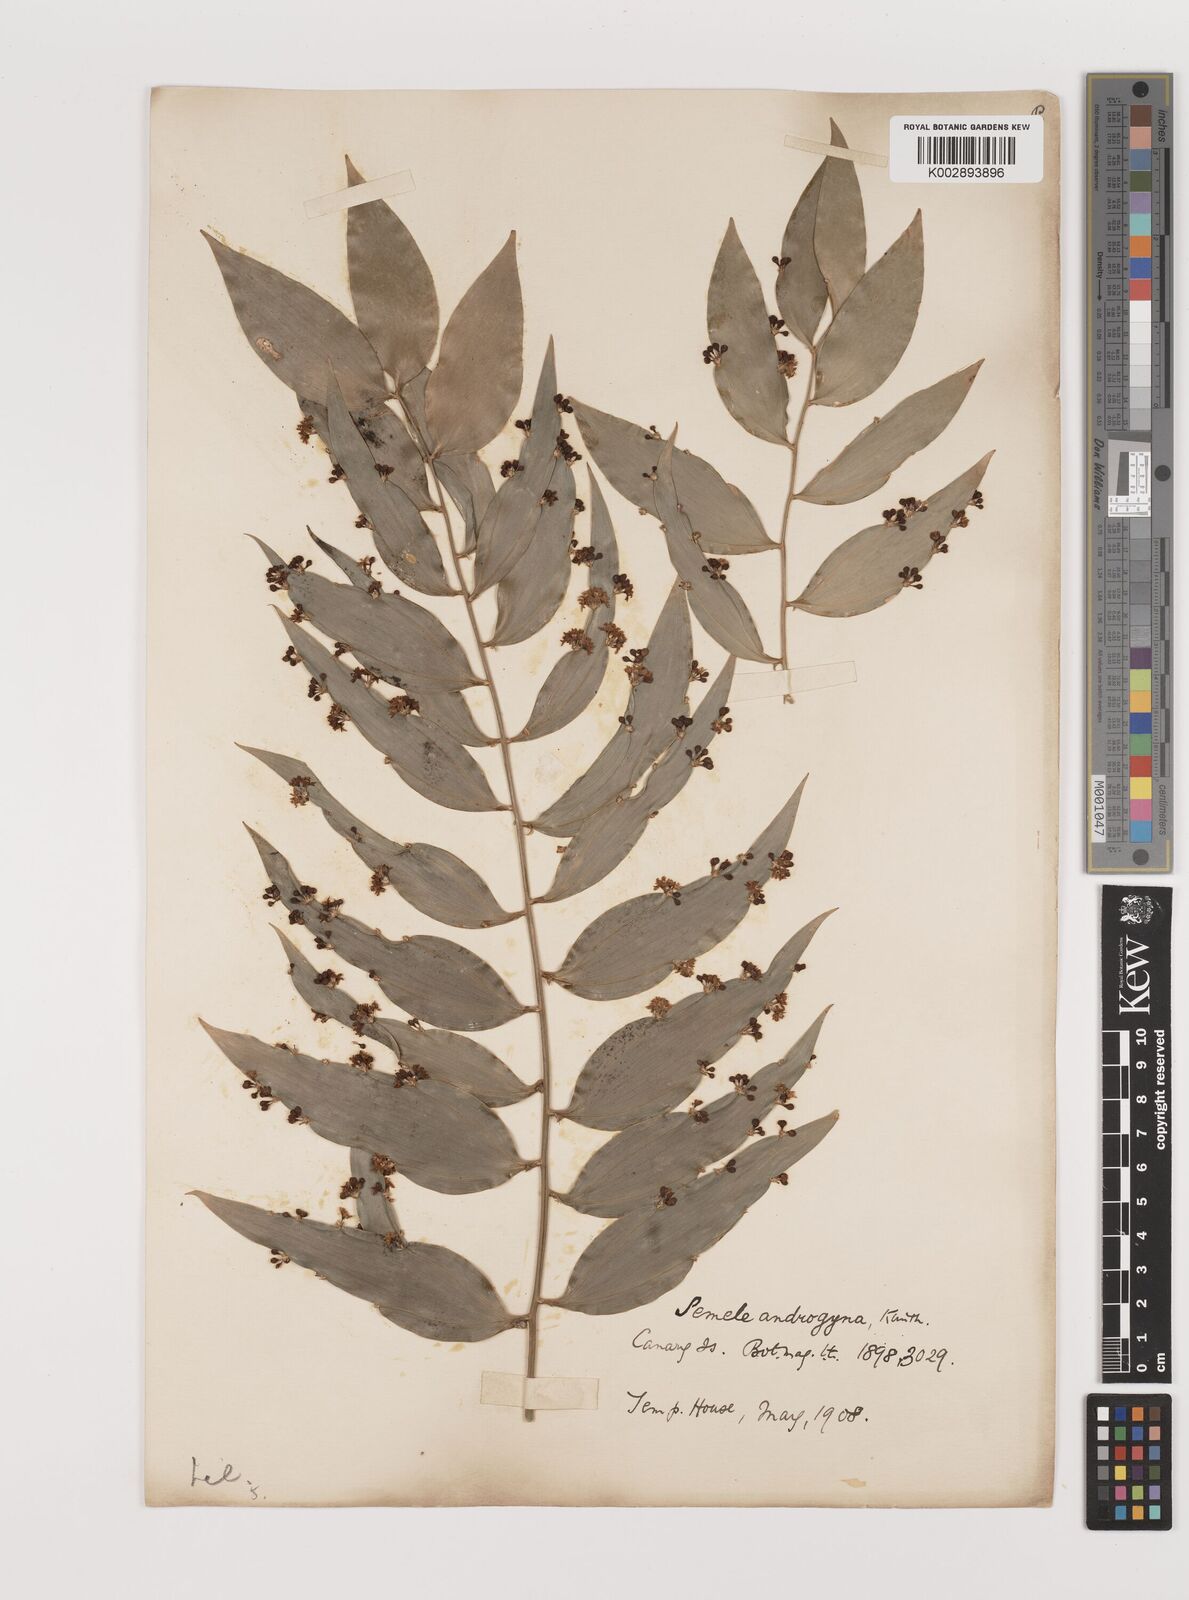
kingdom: Plantae
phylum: Tracheophyta
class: Liliopsida
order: Asparagales
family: Asparagaceae
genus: Semele
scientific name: Semele androgyna
